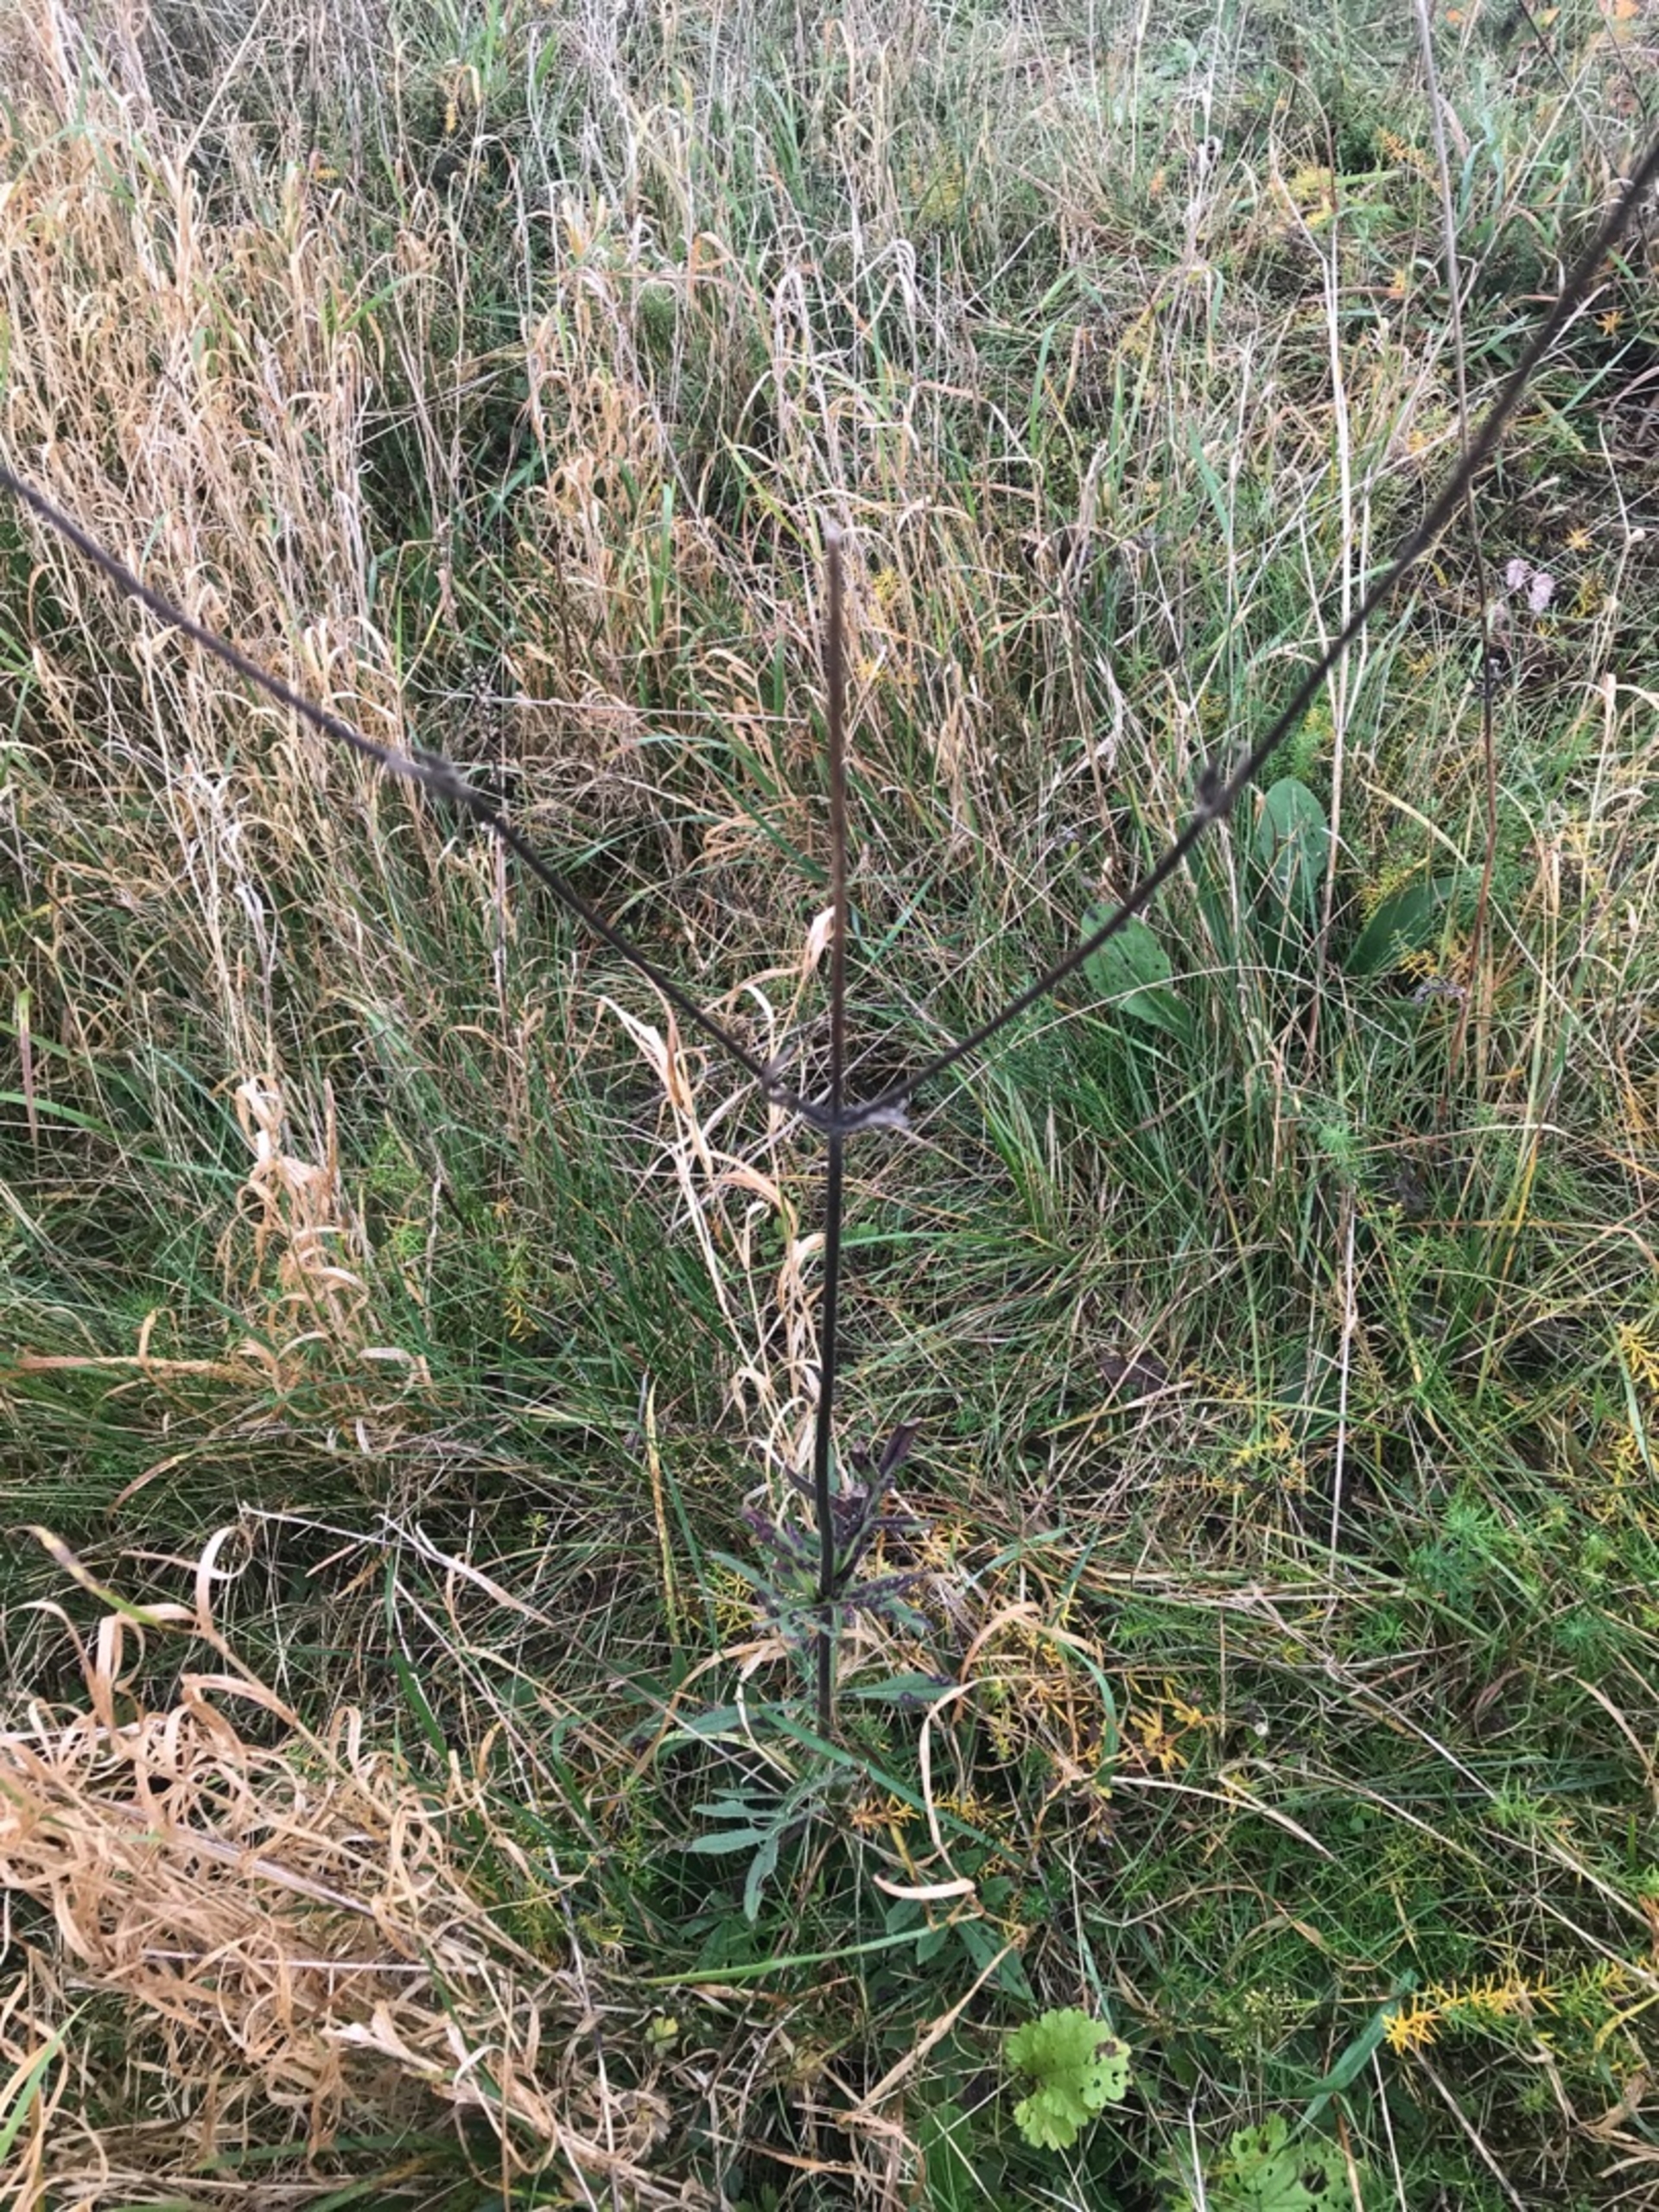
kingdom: Plantae
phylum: Tracheophyta
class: Magnoliopsida
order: Dipsacales
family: Caprifoliaceae
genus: Knautia
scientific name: Knautia arvensis
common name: Blåhat
